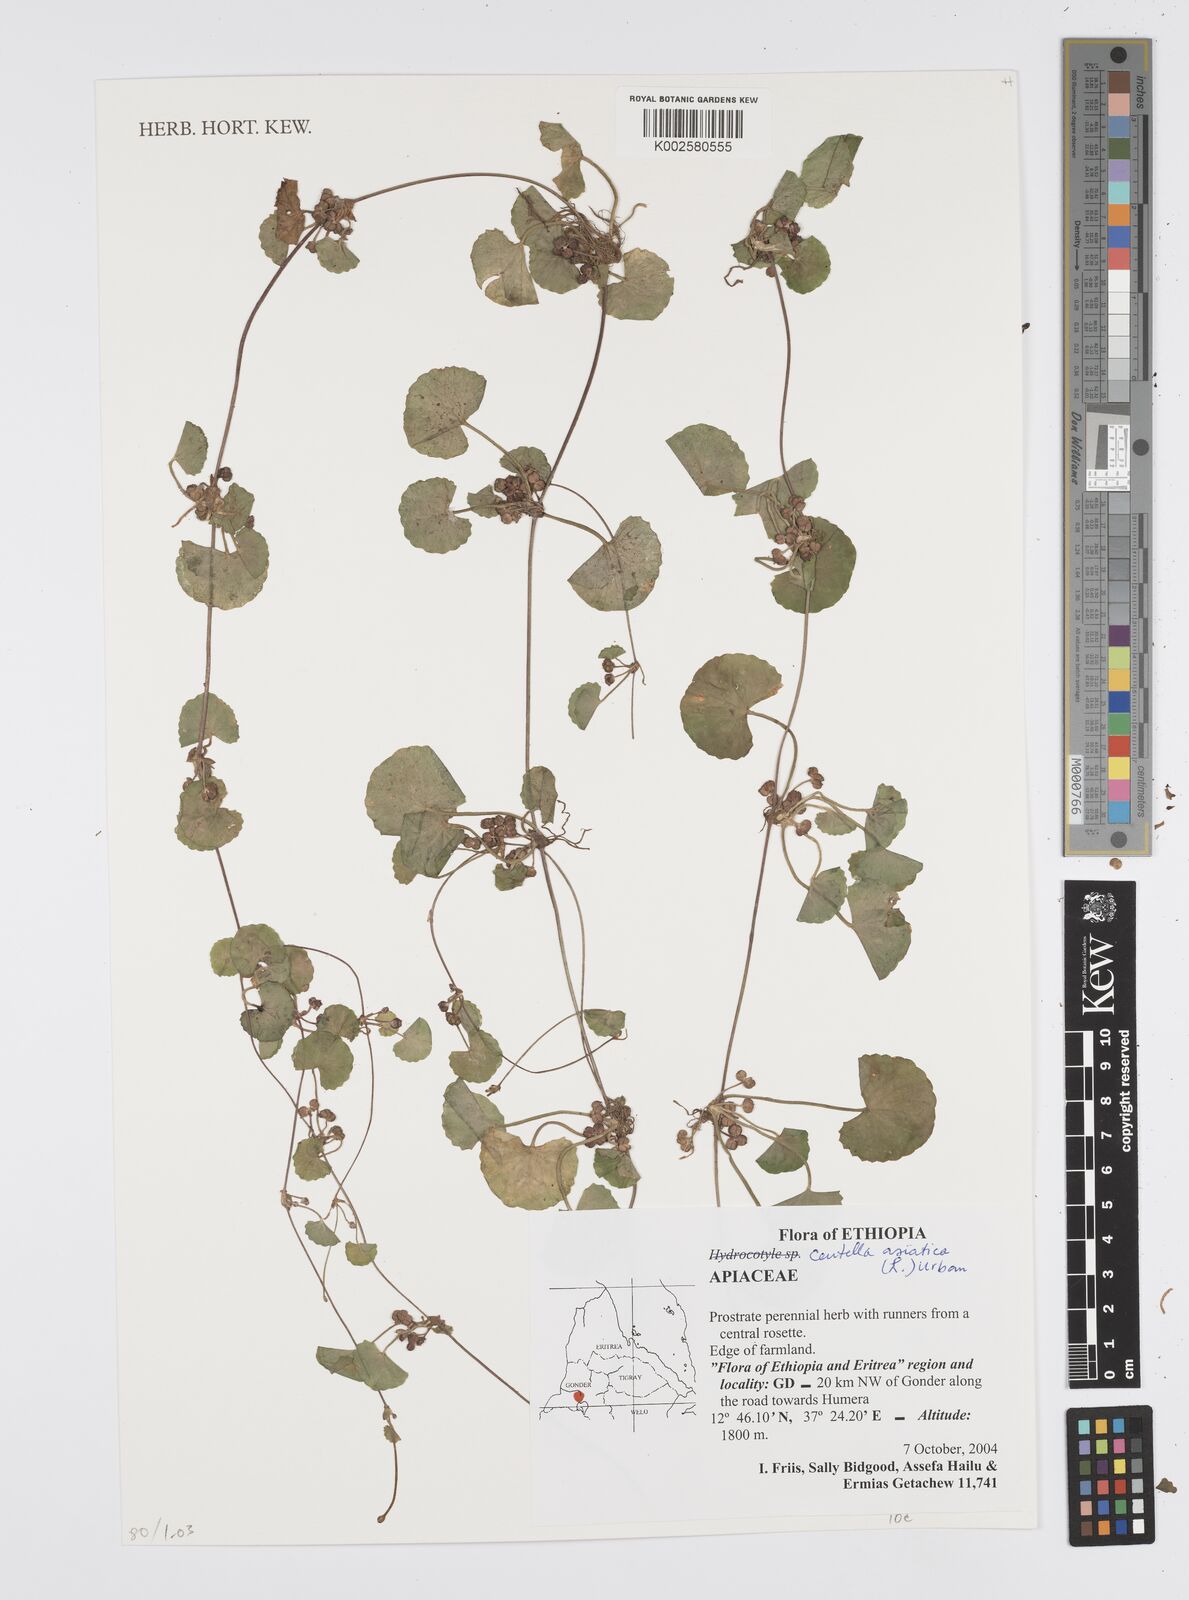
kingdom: Plantae
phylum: Tracheophyta
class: Magnoliopsida
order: Apiales
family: Apiaceae
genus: Centella
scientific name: Centella asiatica
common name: Spadeleaf
